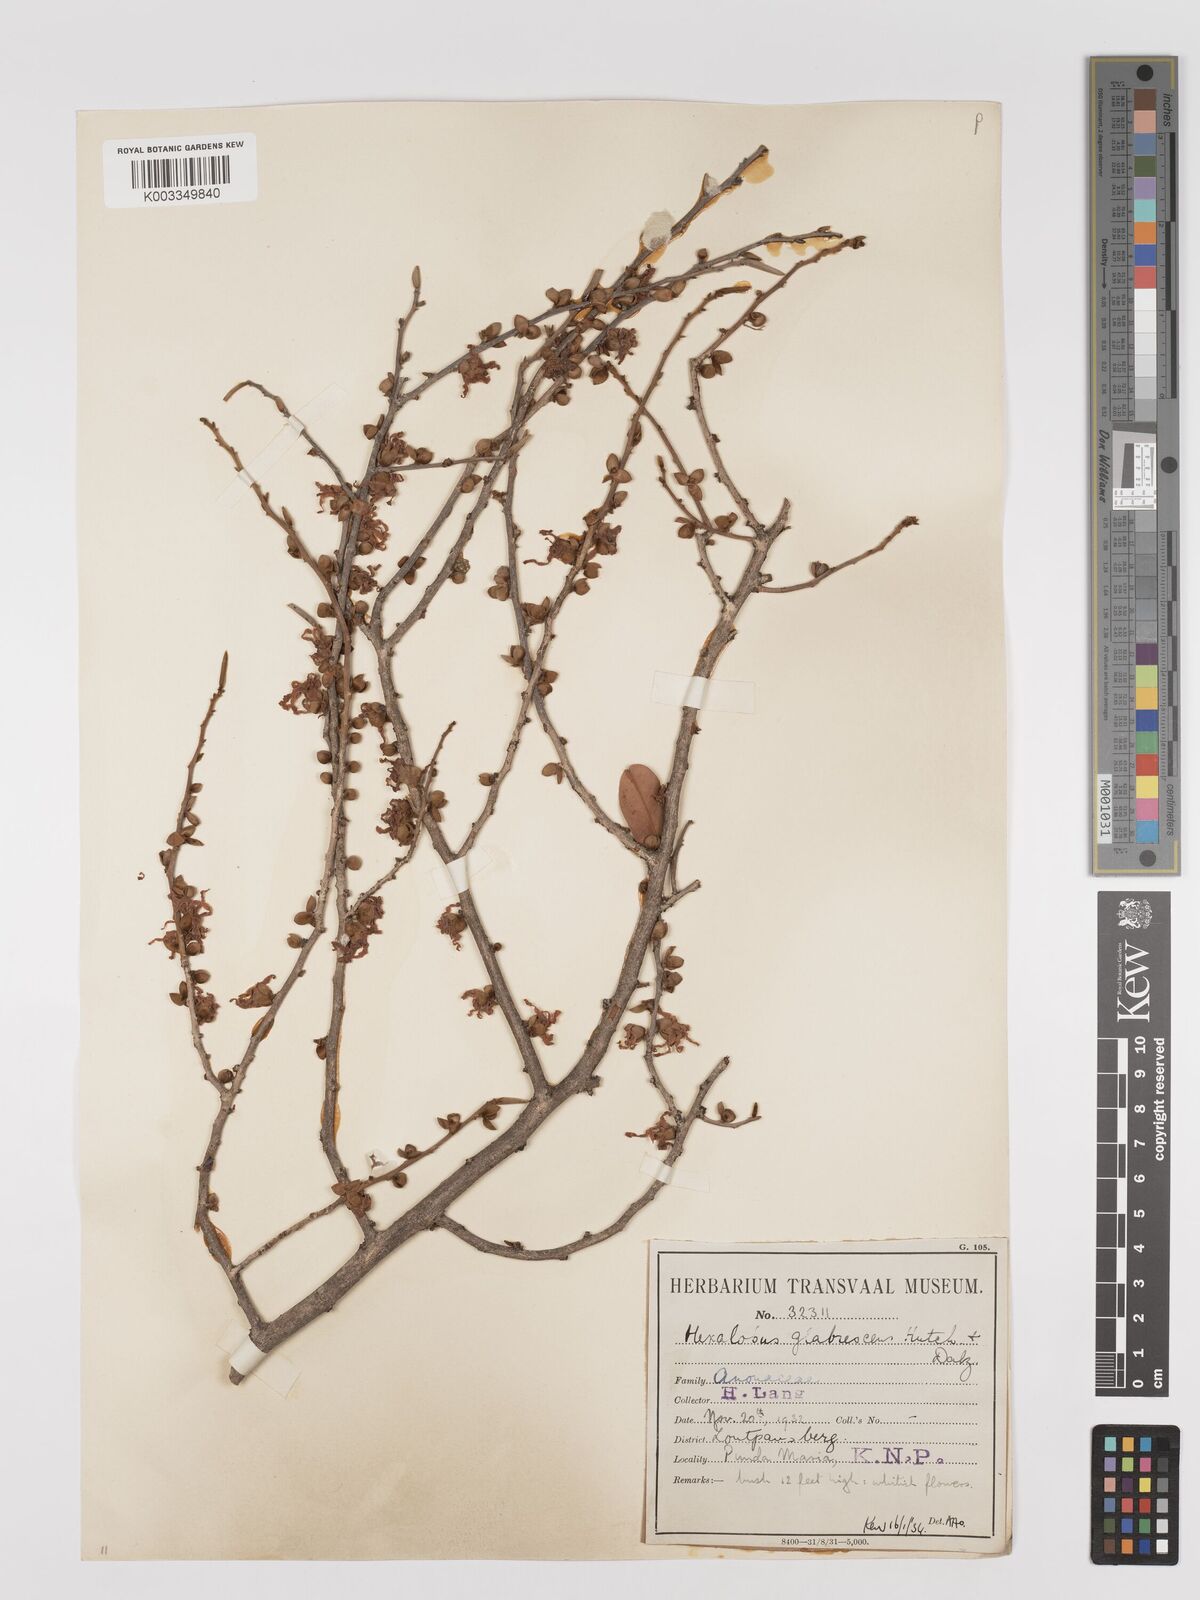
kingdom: Plantae
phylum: Tracheophyta
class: Magnoliopsida
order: Magnoliales
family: Annonaceae
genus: Hexalobus
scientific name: Hexalobus monopetalus
